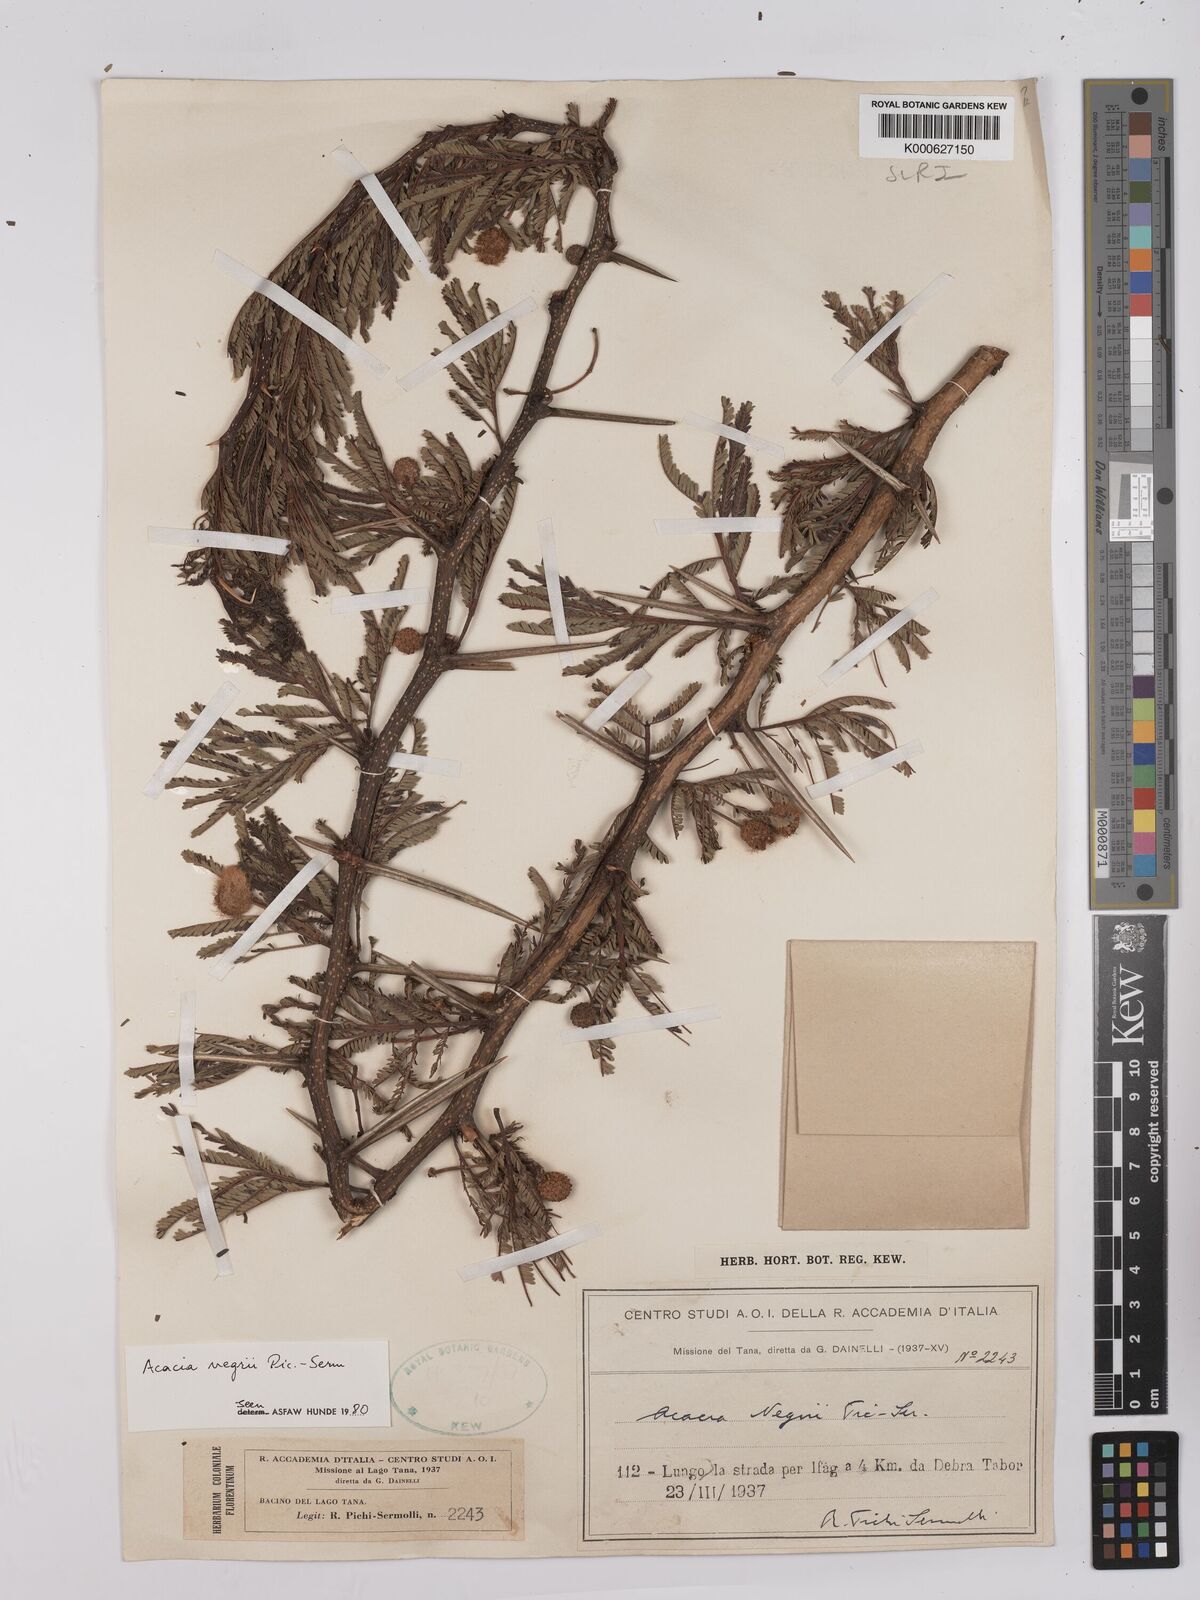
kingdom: Plantae
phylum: Tracheophyta
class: Magnoliopsida
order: Fabales
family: Fabaceae
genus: Vachellia
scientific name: Vachellia negrii
